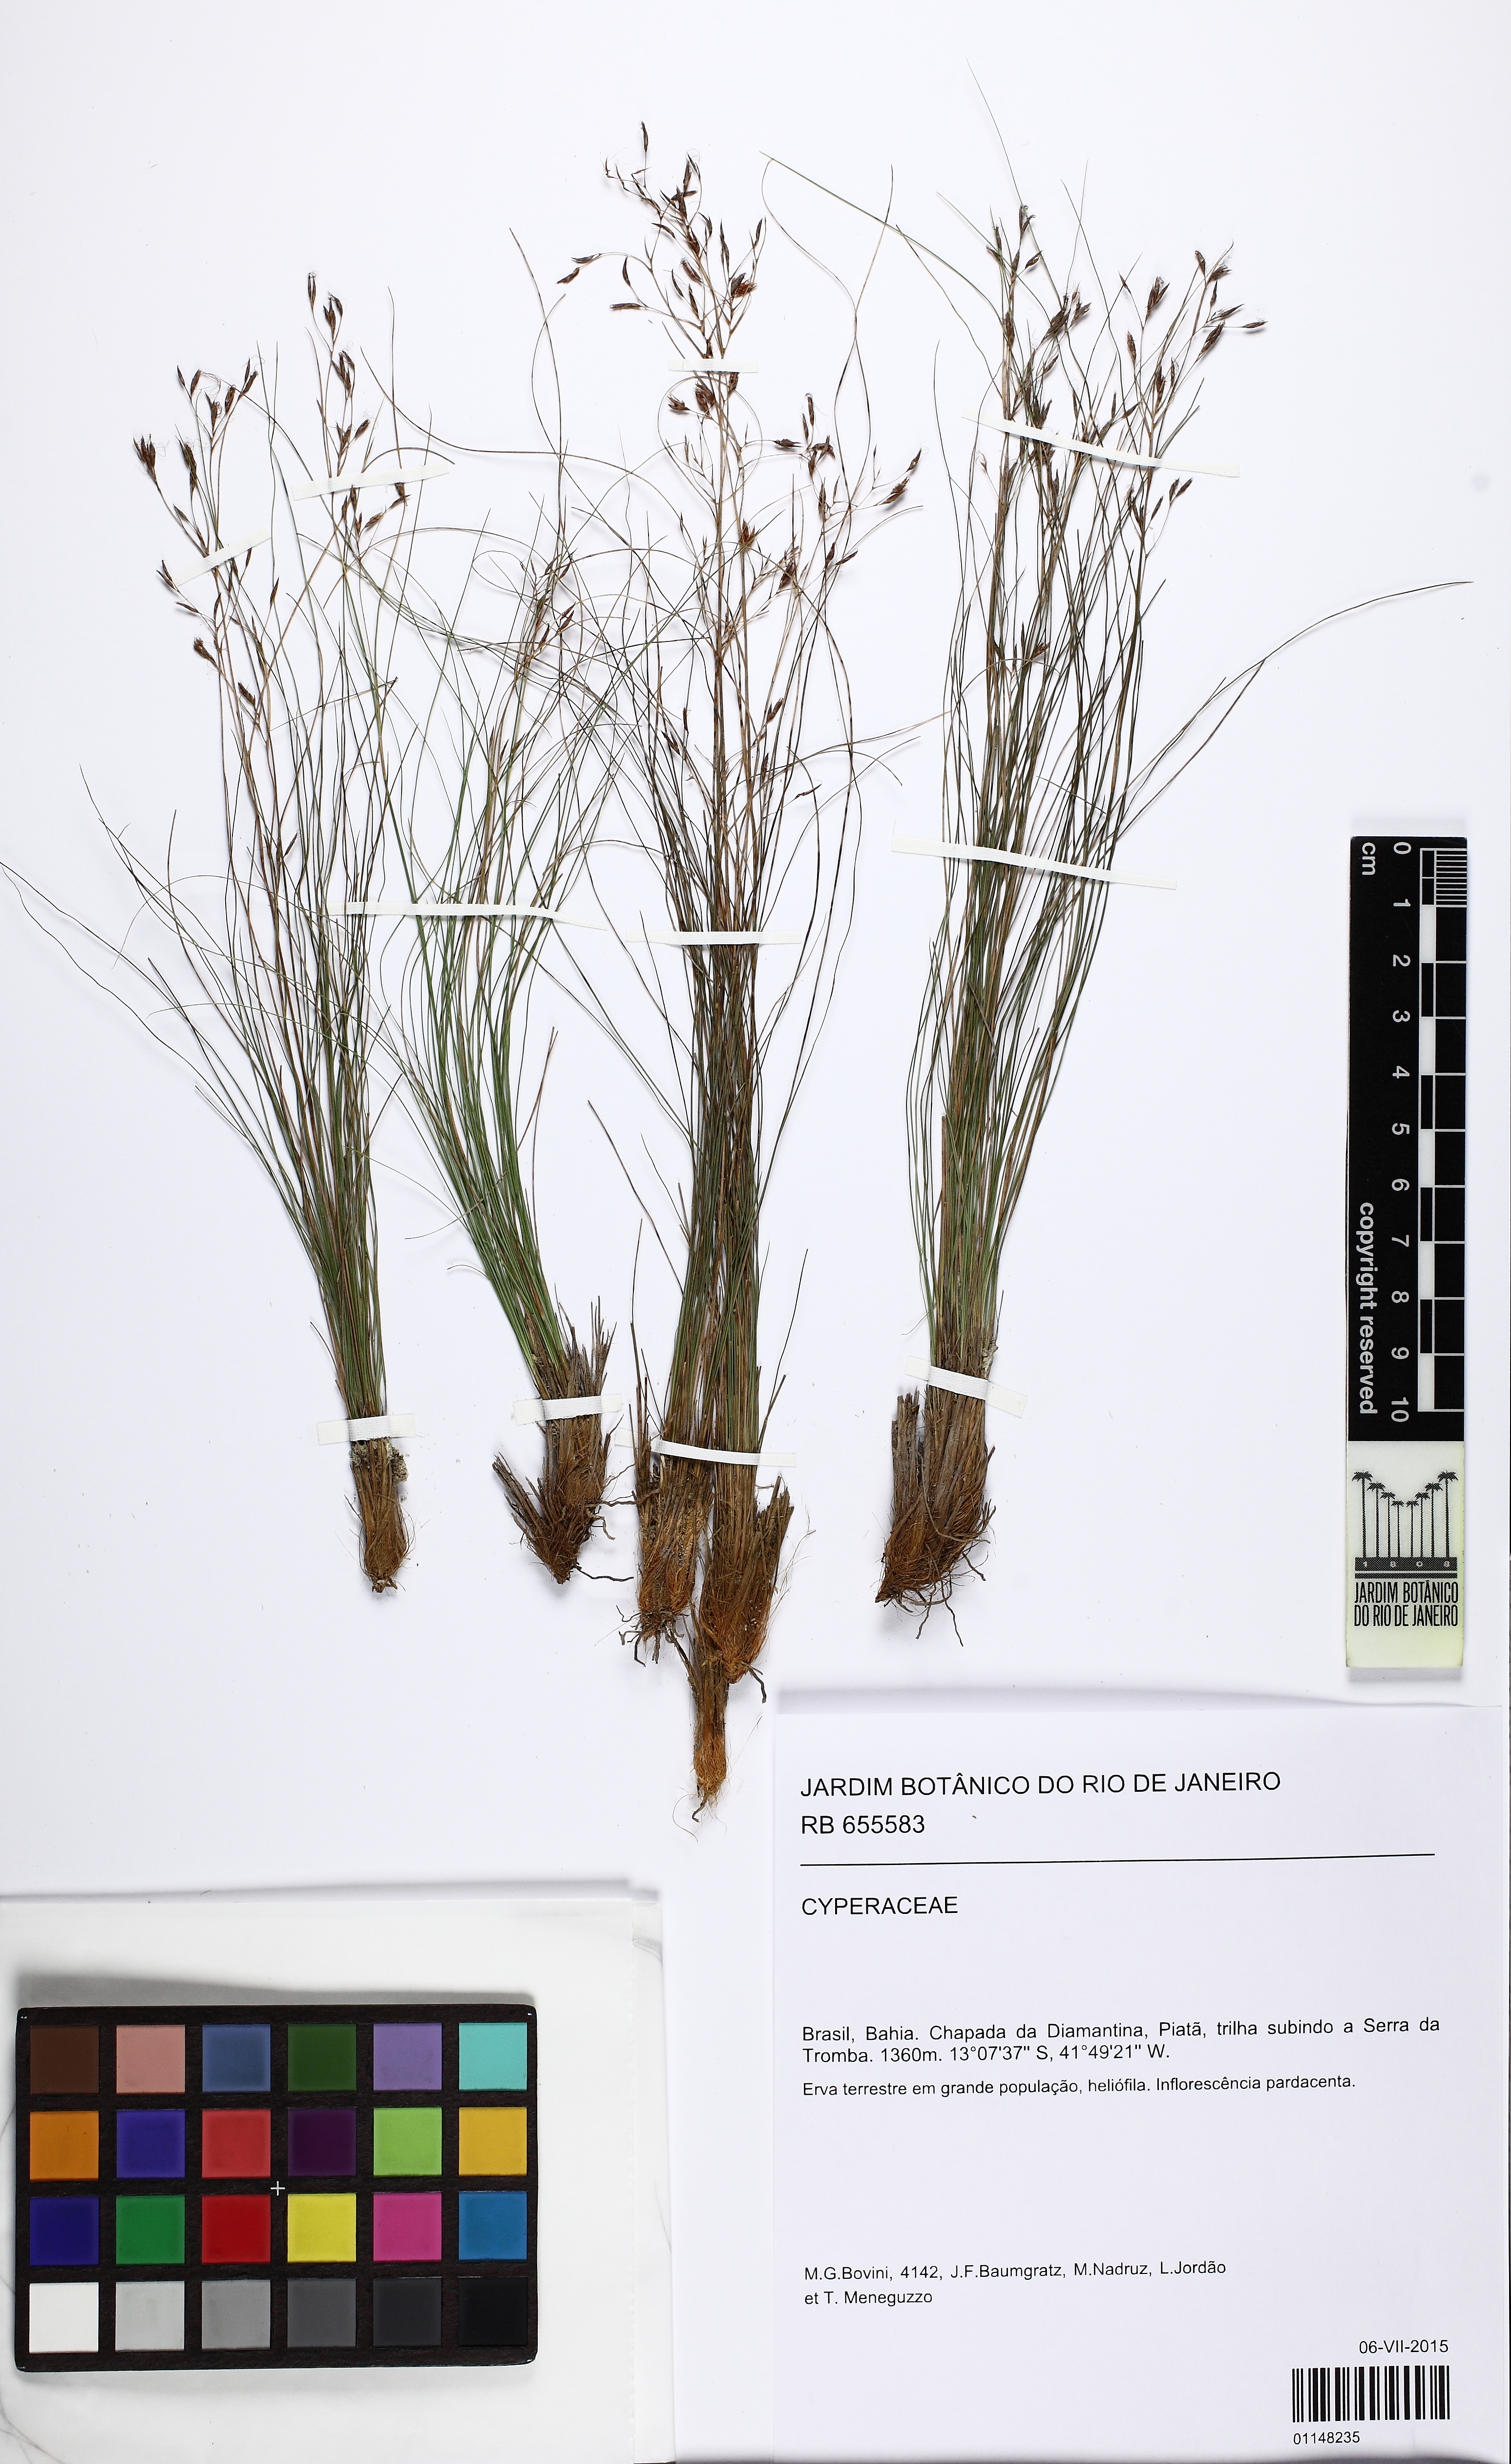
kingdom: Plantae
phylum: Tracheophyta
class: Liliopsida
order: Poales
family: Cyperaceae
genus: Rhynchospora
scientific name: Rhynchospora caracasana
